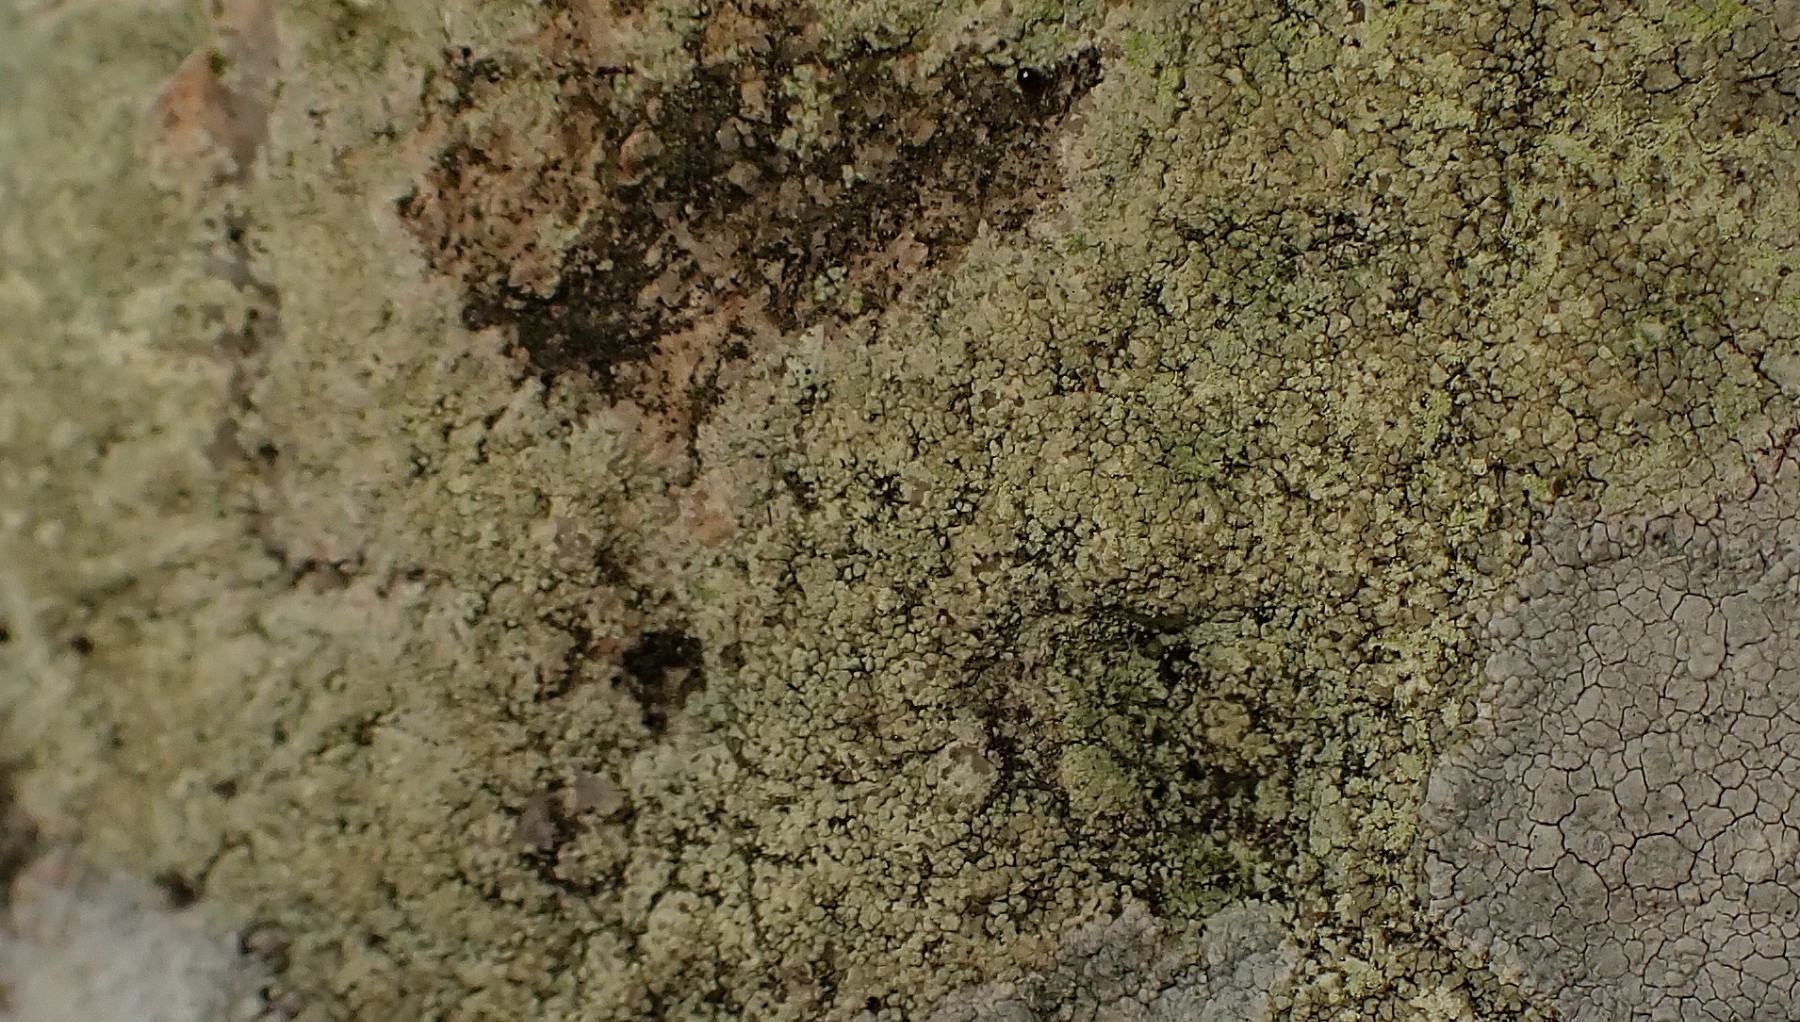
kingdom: Fungi
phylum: Ascomycota
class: Lecanoromycetes
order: Lecanorales
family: Lecanoraceae
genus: Glaucomaria
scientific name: Glaucomaria sulphurea
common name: svovlgul kantskivelav
